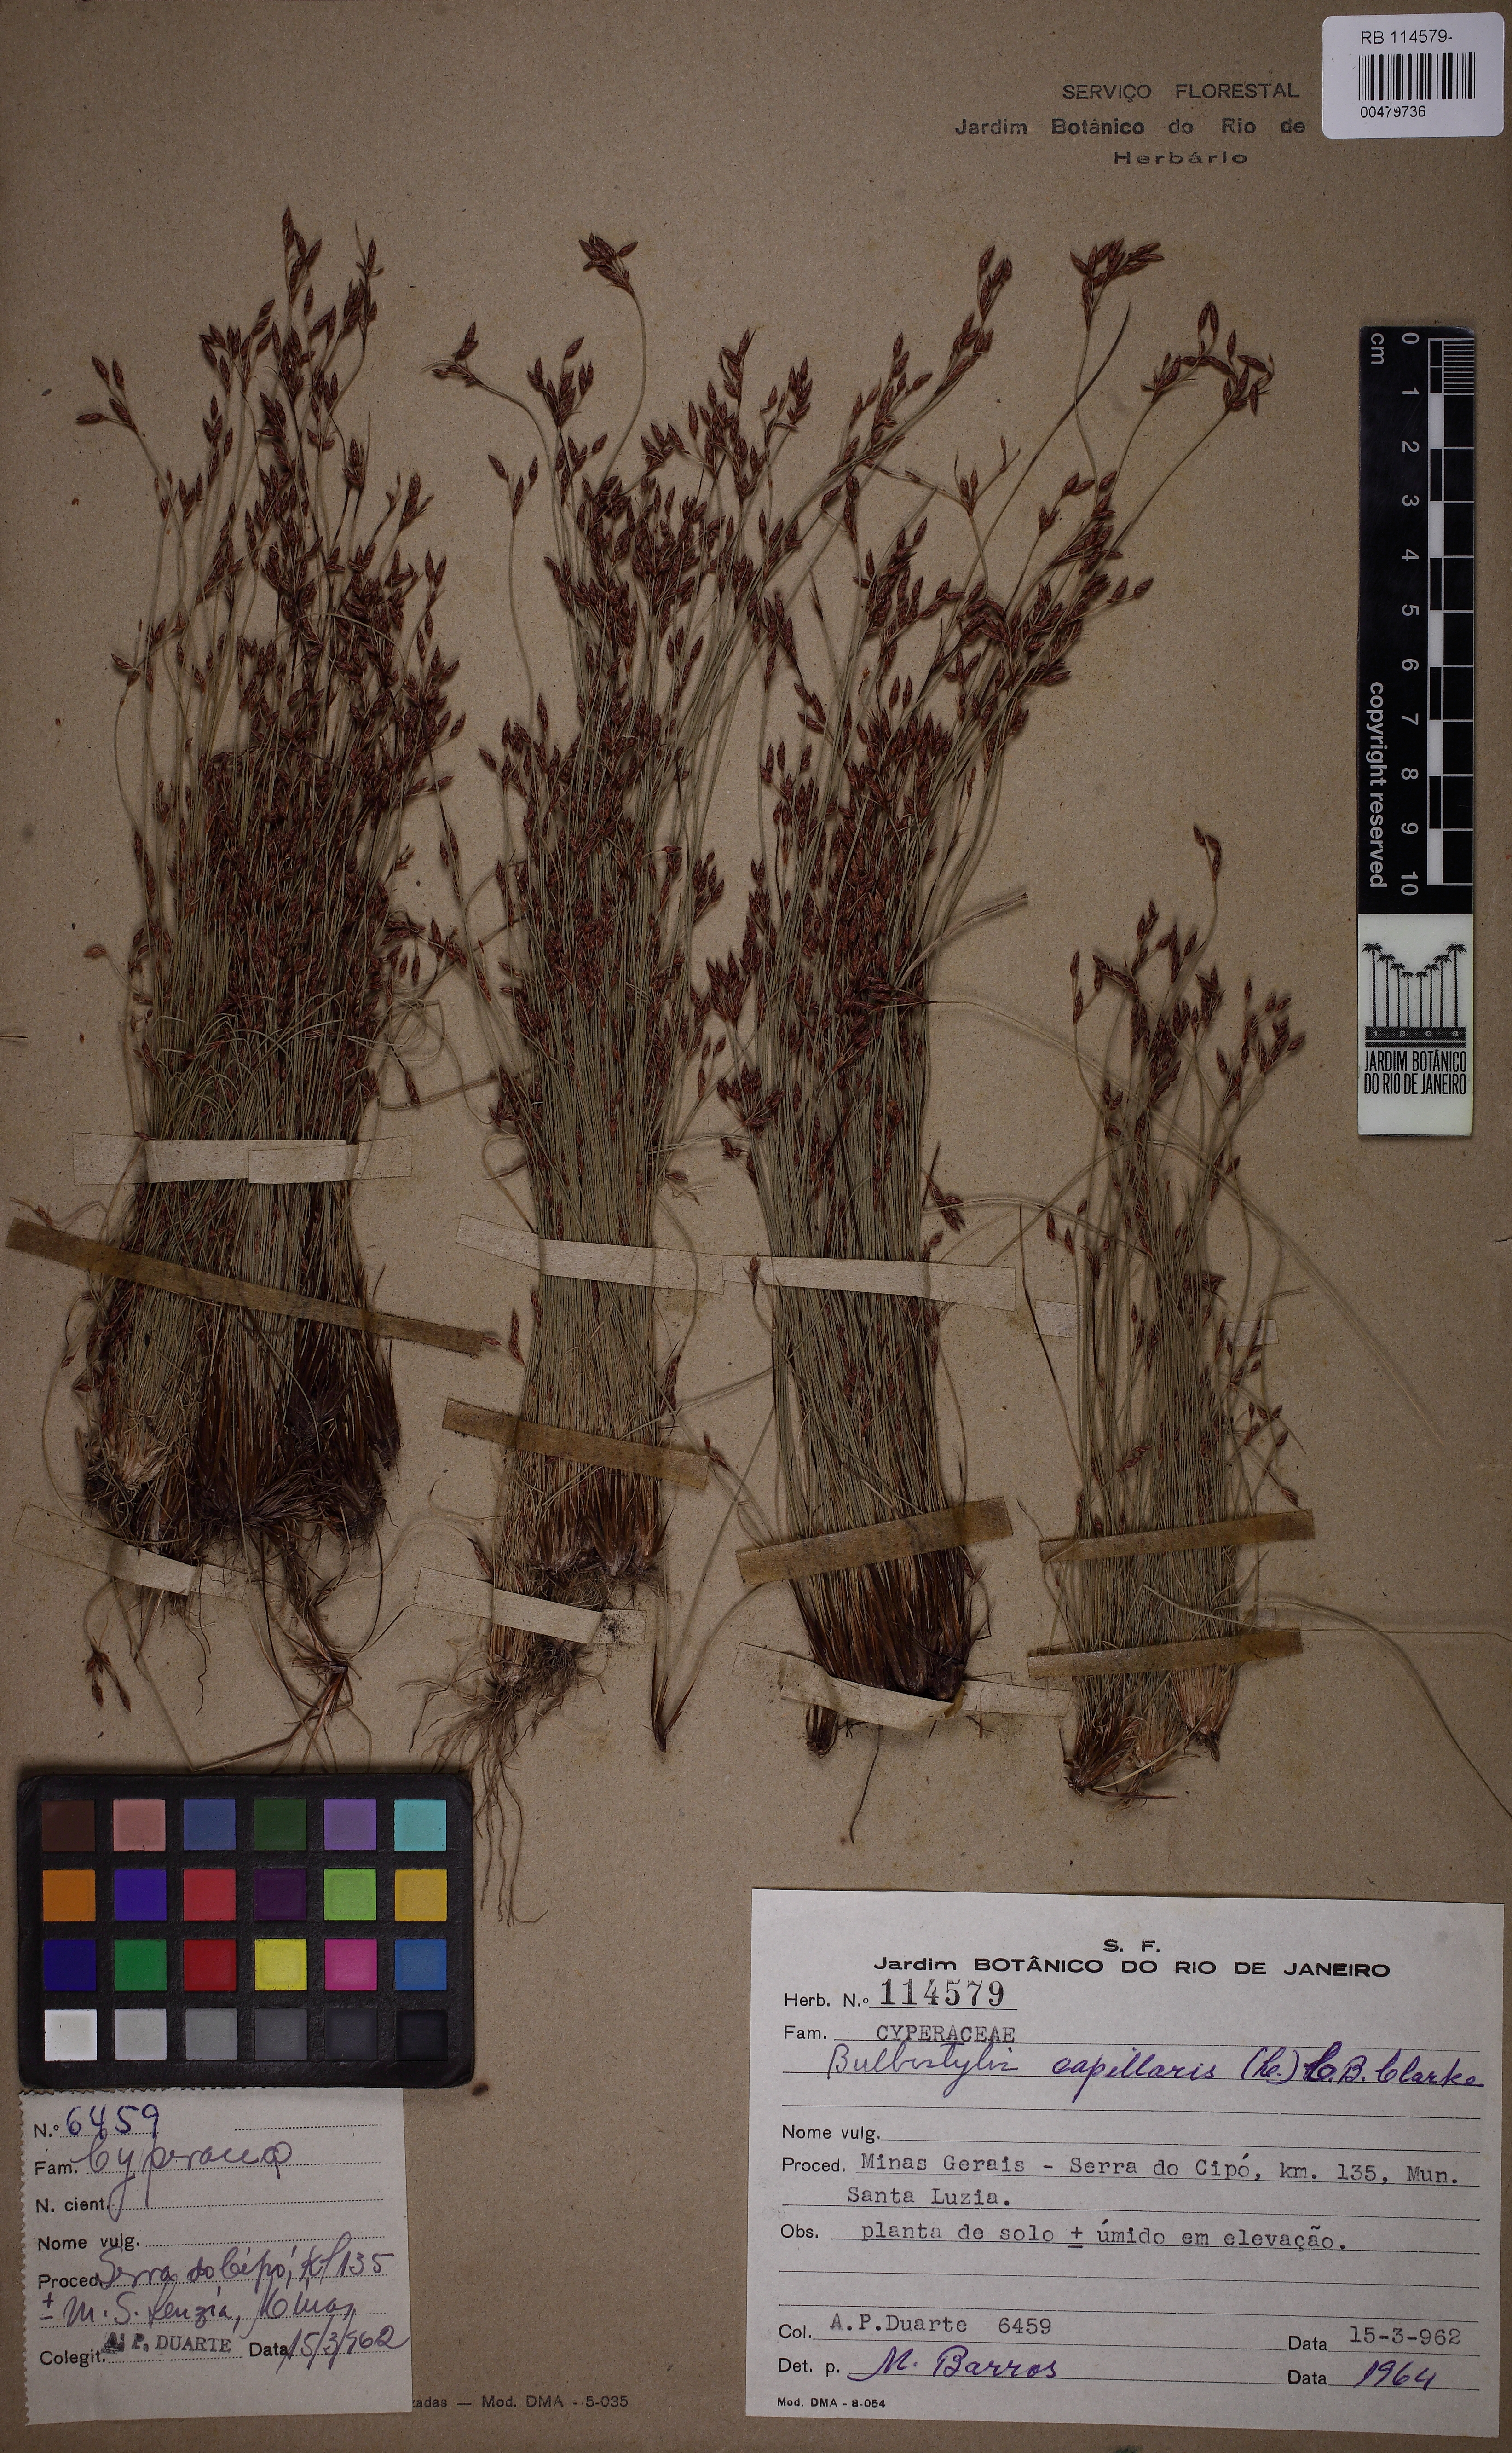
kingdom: Plantae
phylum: Tracheophyta
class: Liliopsida
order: Poales
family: Cyperaceae
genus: Bulbostylis
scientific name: Bulbostylis capillaris
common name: Densetuft hairsedge
